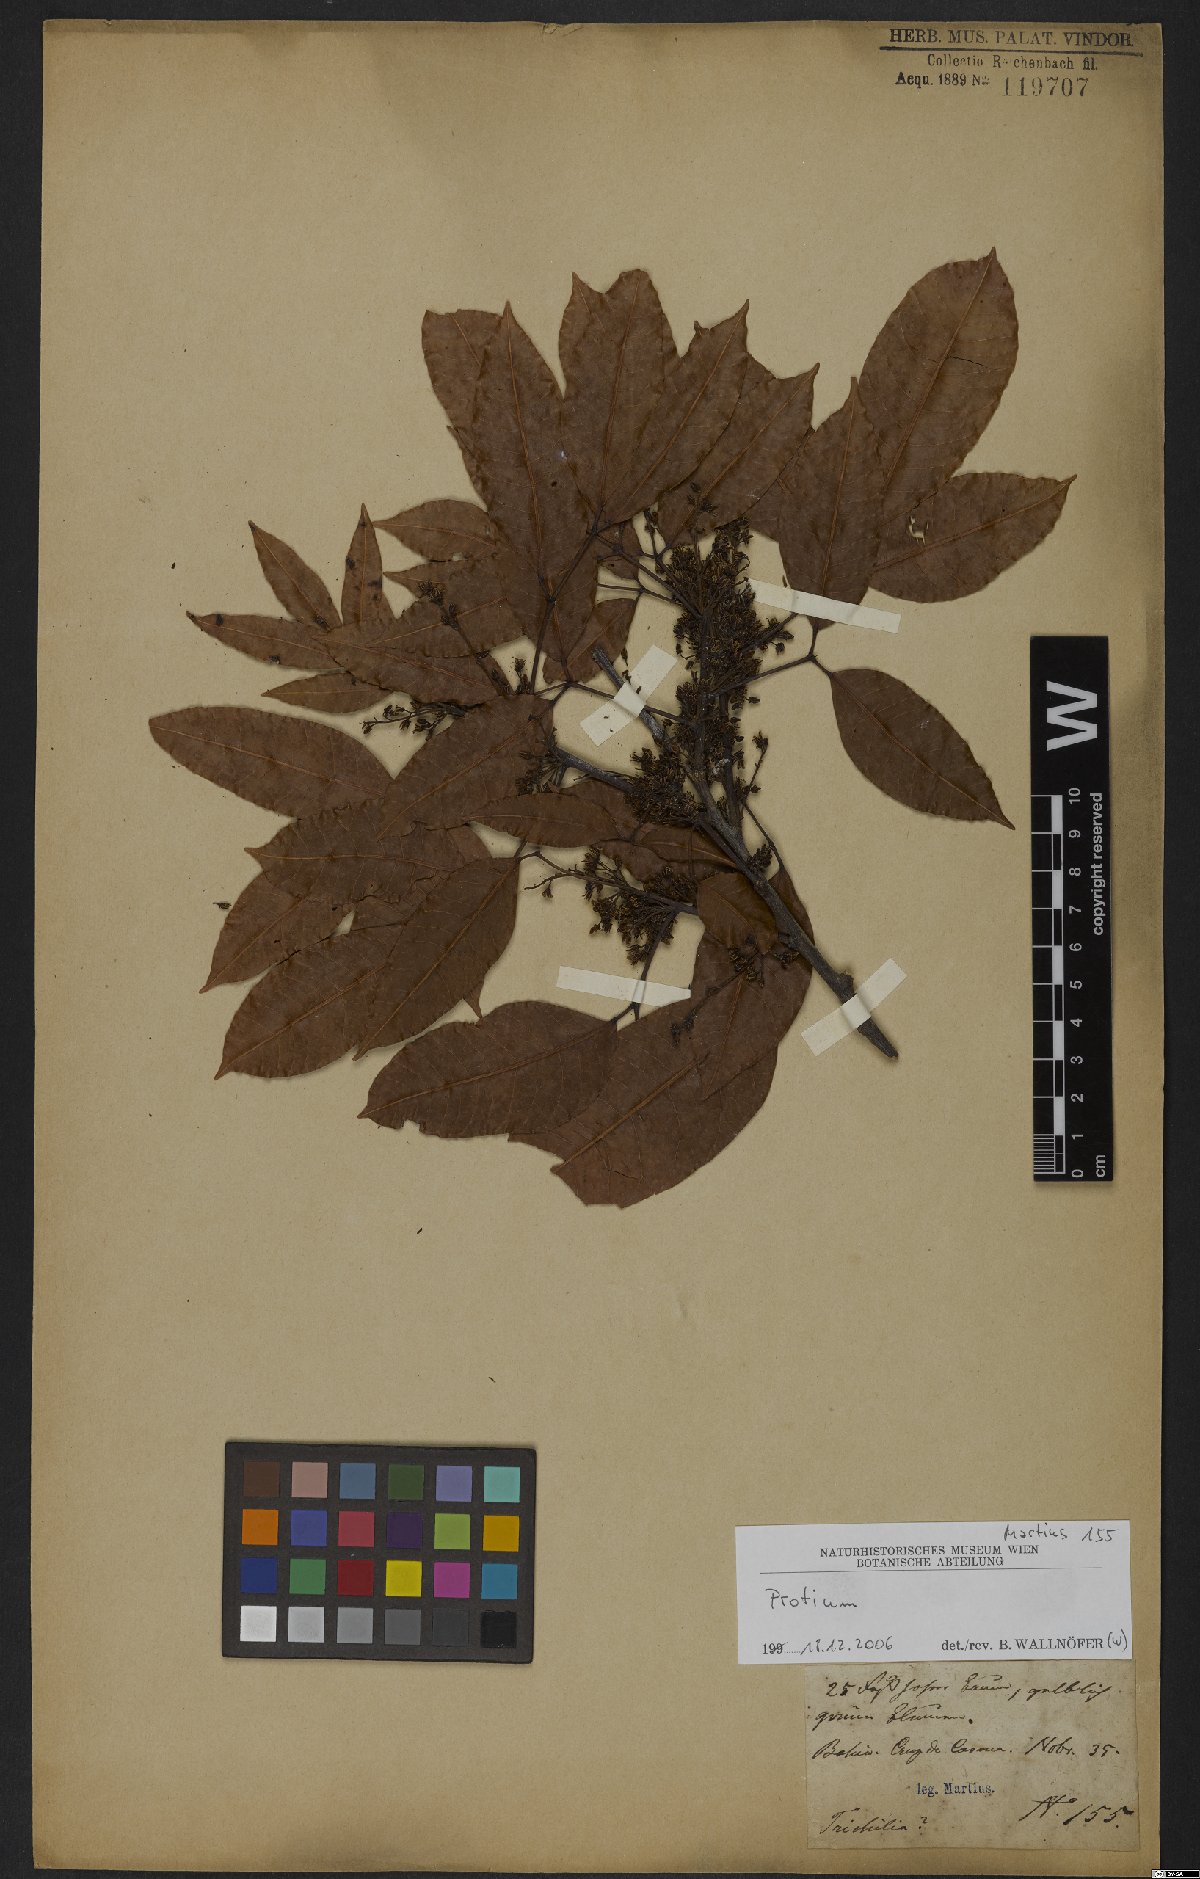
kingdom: Plantae
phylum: Tracheophyta
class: Magnoliopsida
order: Sapindales
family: Burseraceae
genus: Protium
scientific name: Protium heptaphyllum
